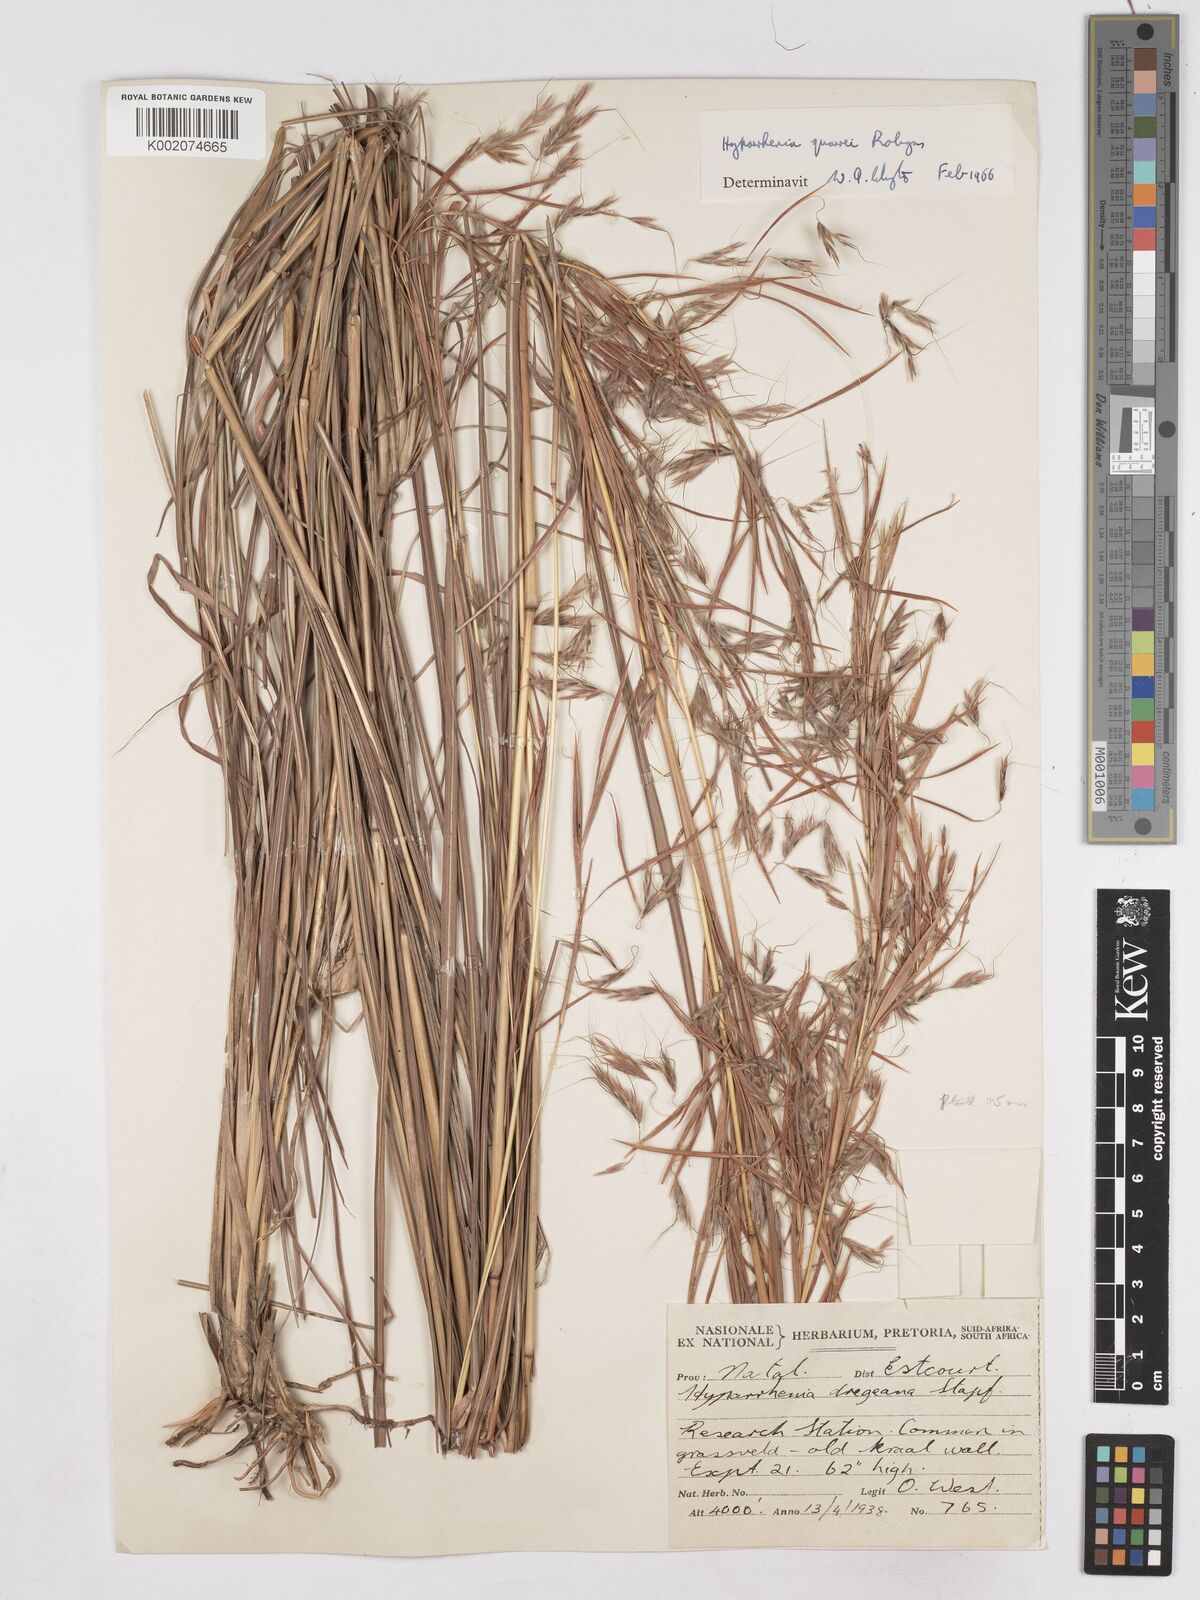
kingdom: Plantae
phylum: Tracheophyta
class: Liliopsida
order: Poales
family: Poaceae
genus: Hyparrhenia
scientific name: Hyparrhenia quarrei
